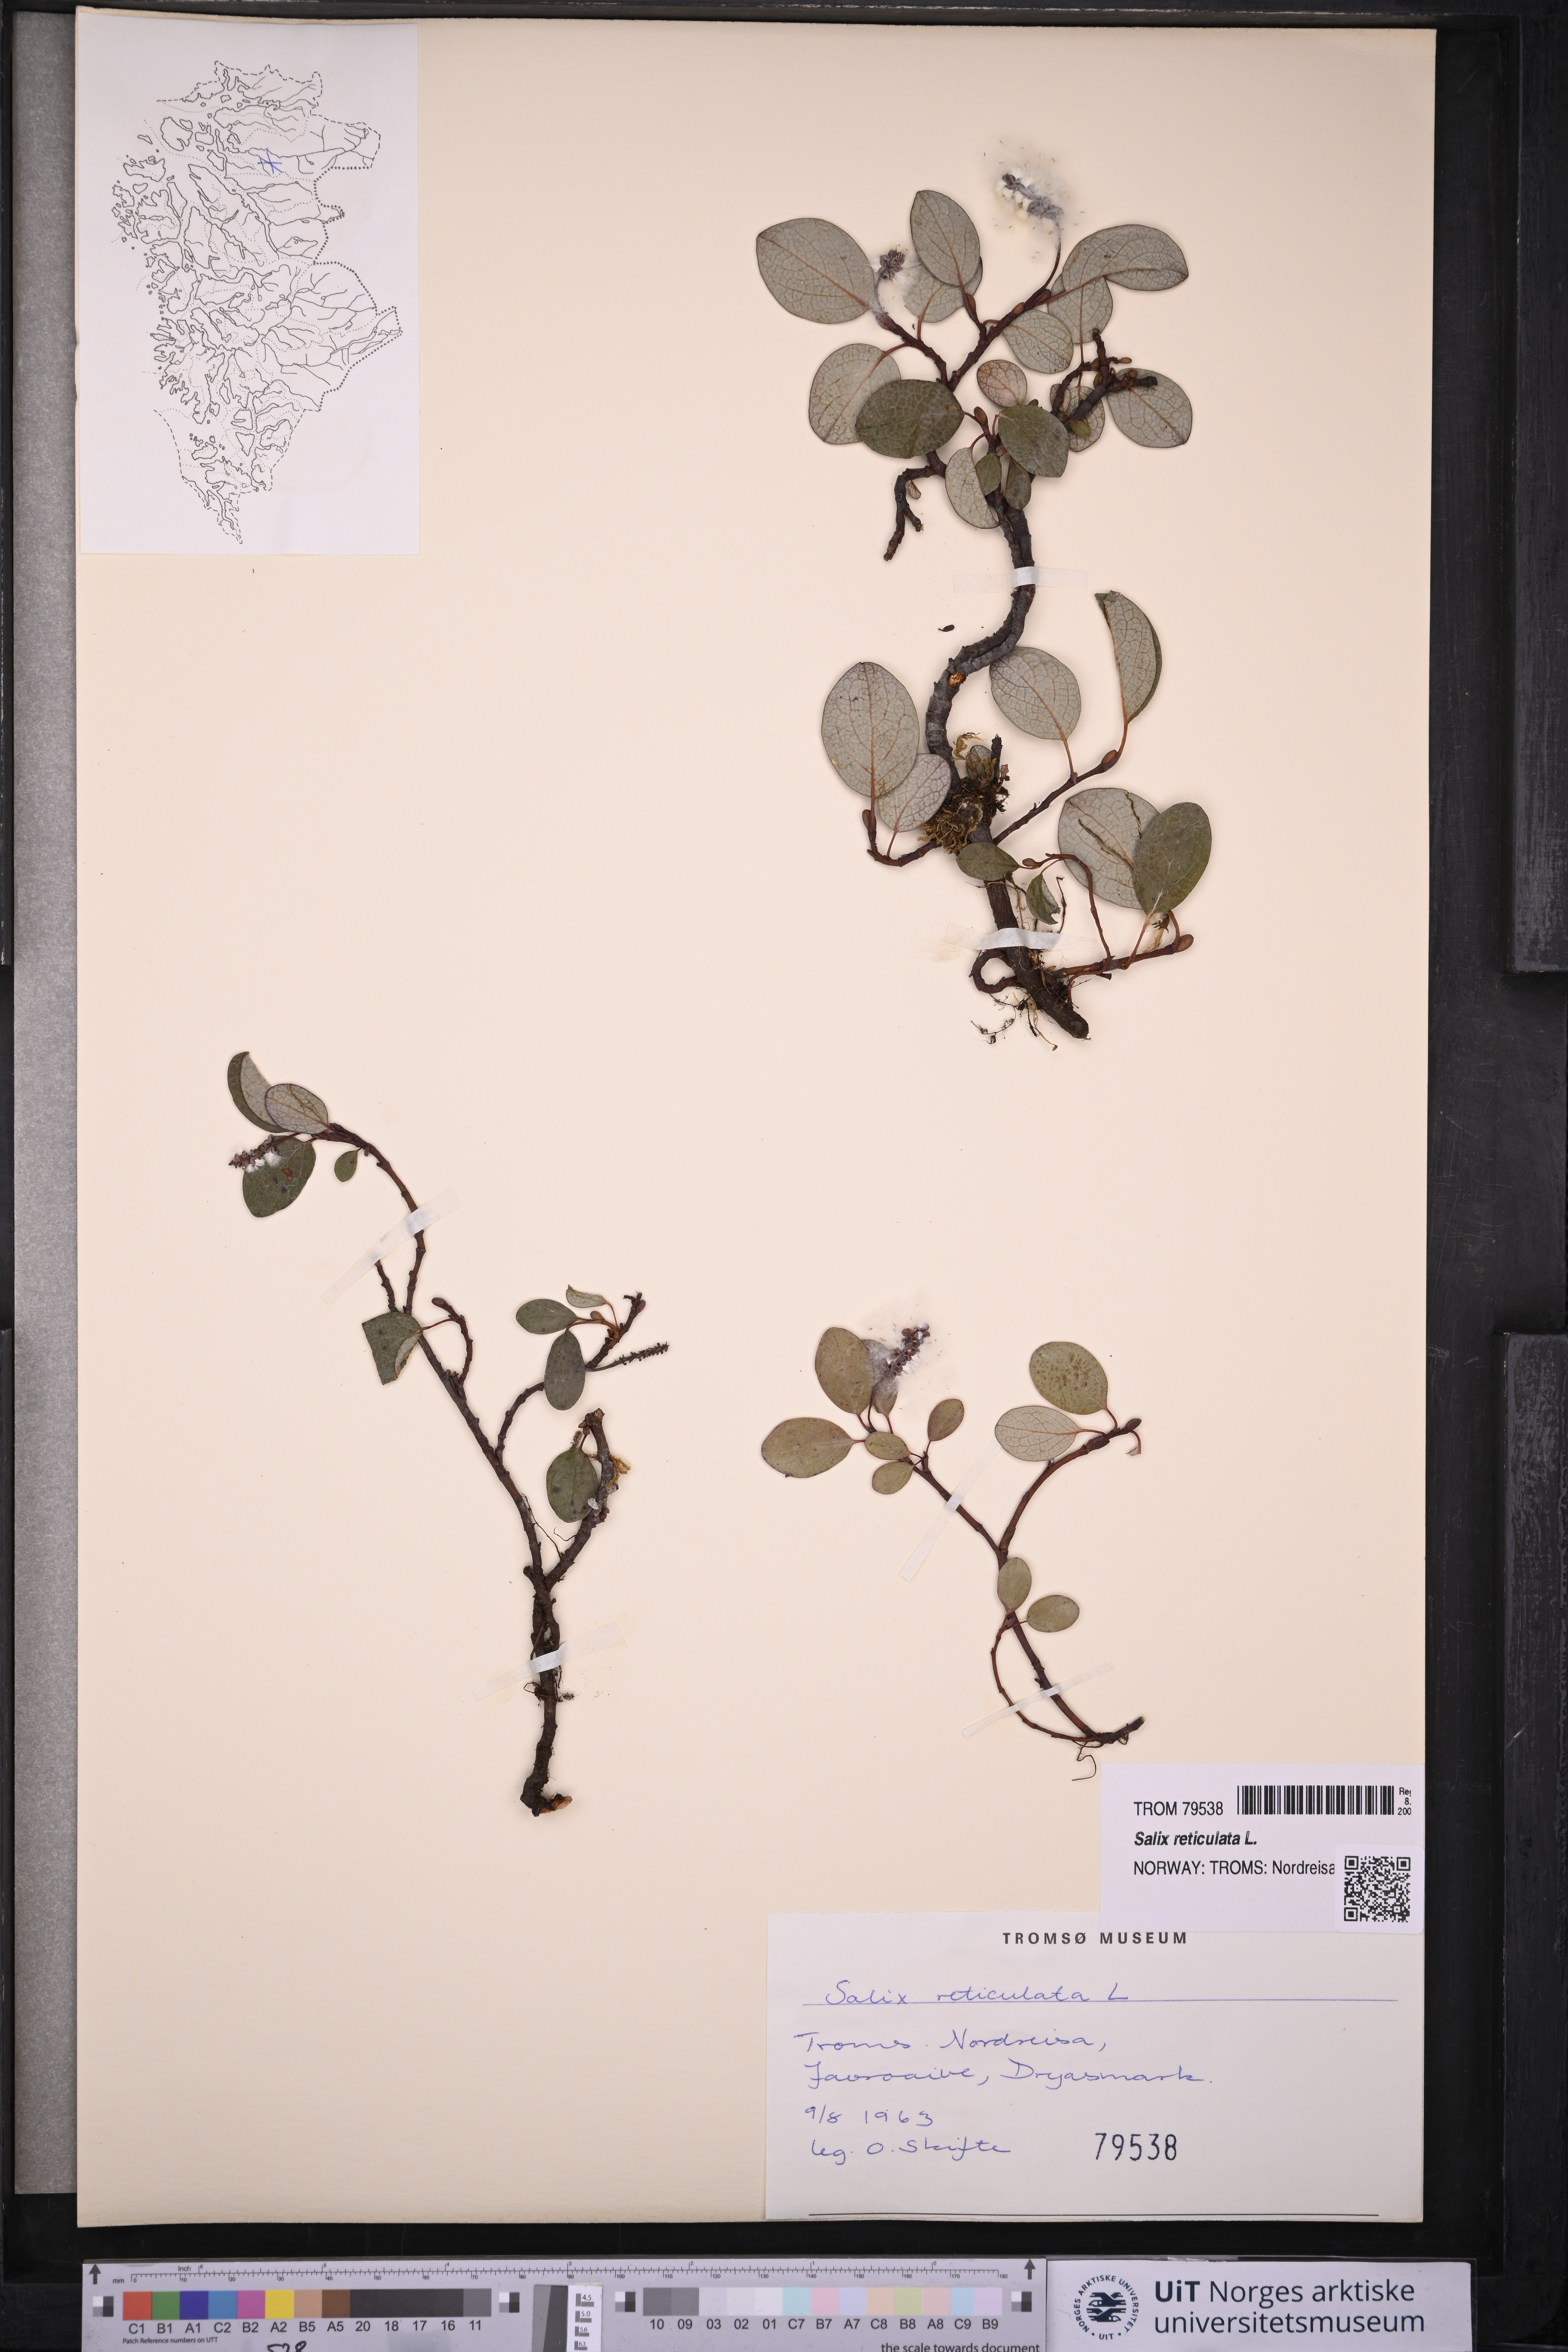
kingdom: Plantae
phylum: Tracheophyta
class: Magnoliopsida
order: Malpighiales
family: Salicaceae
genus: Salix
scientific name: Salix reticulata
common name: Net-leaved willow
